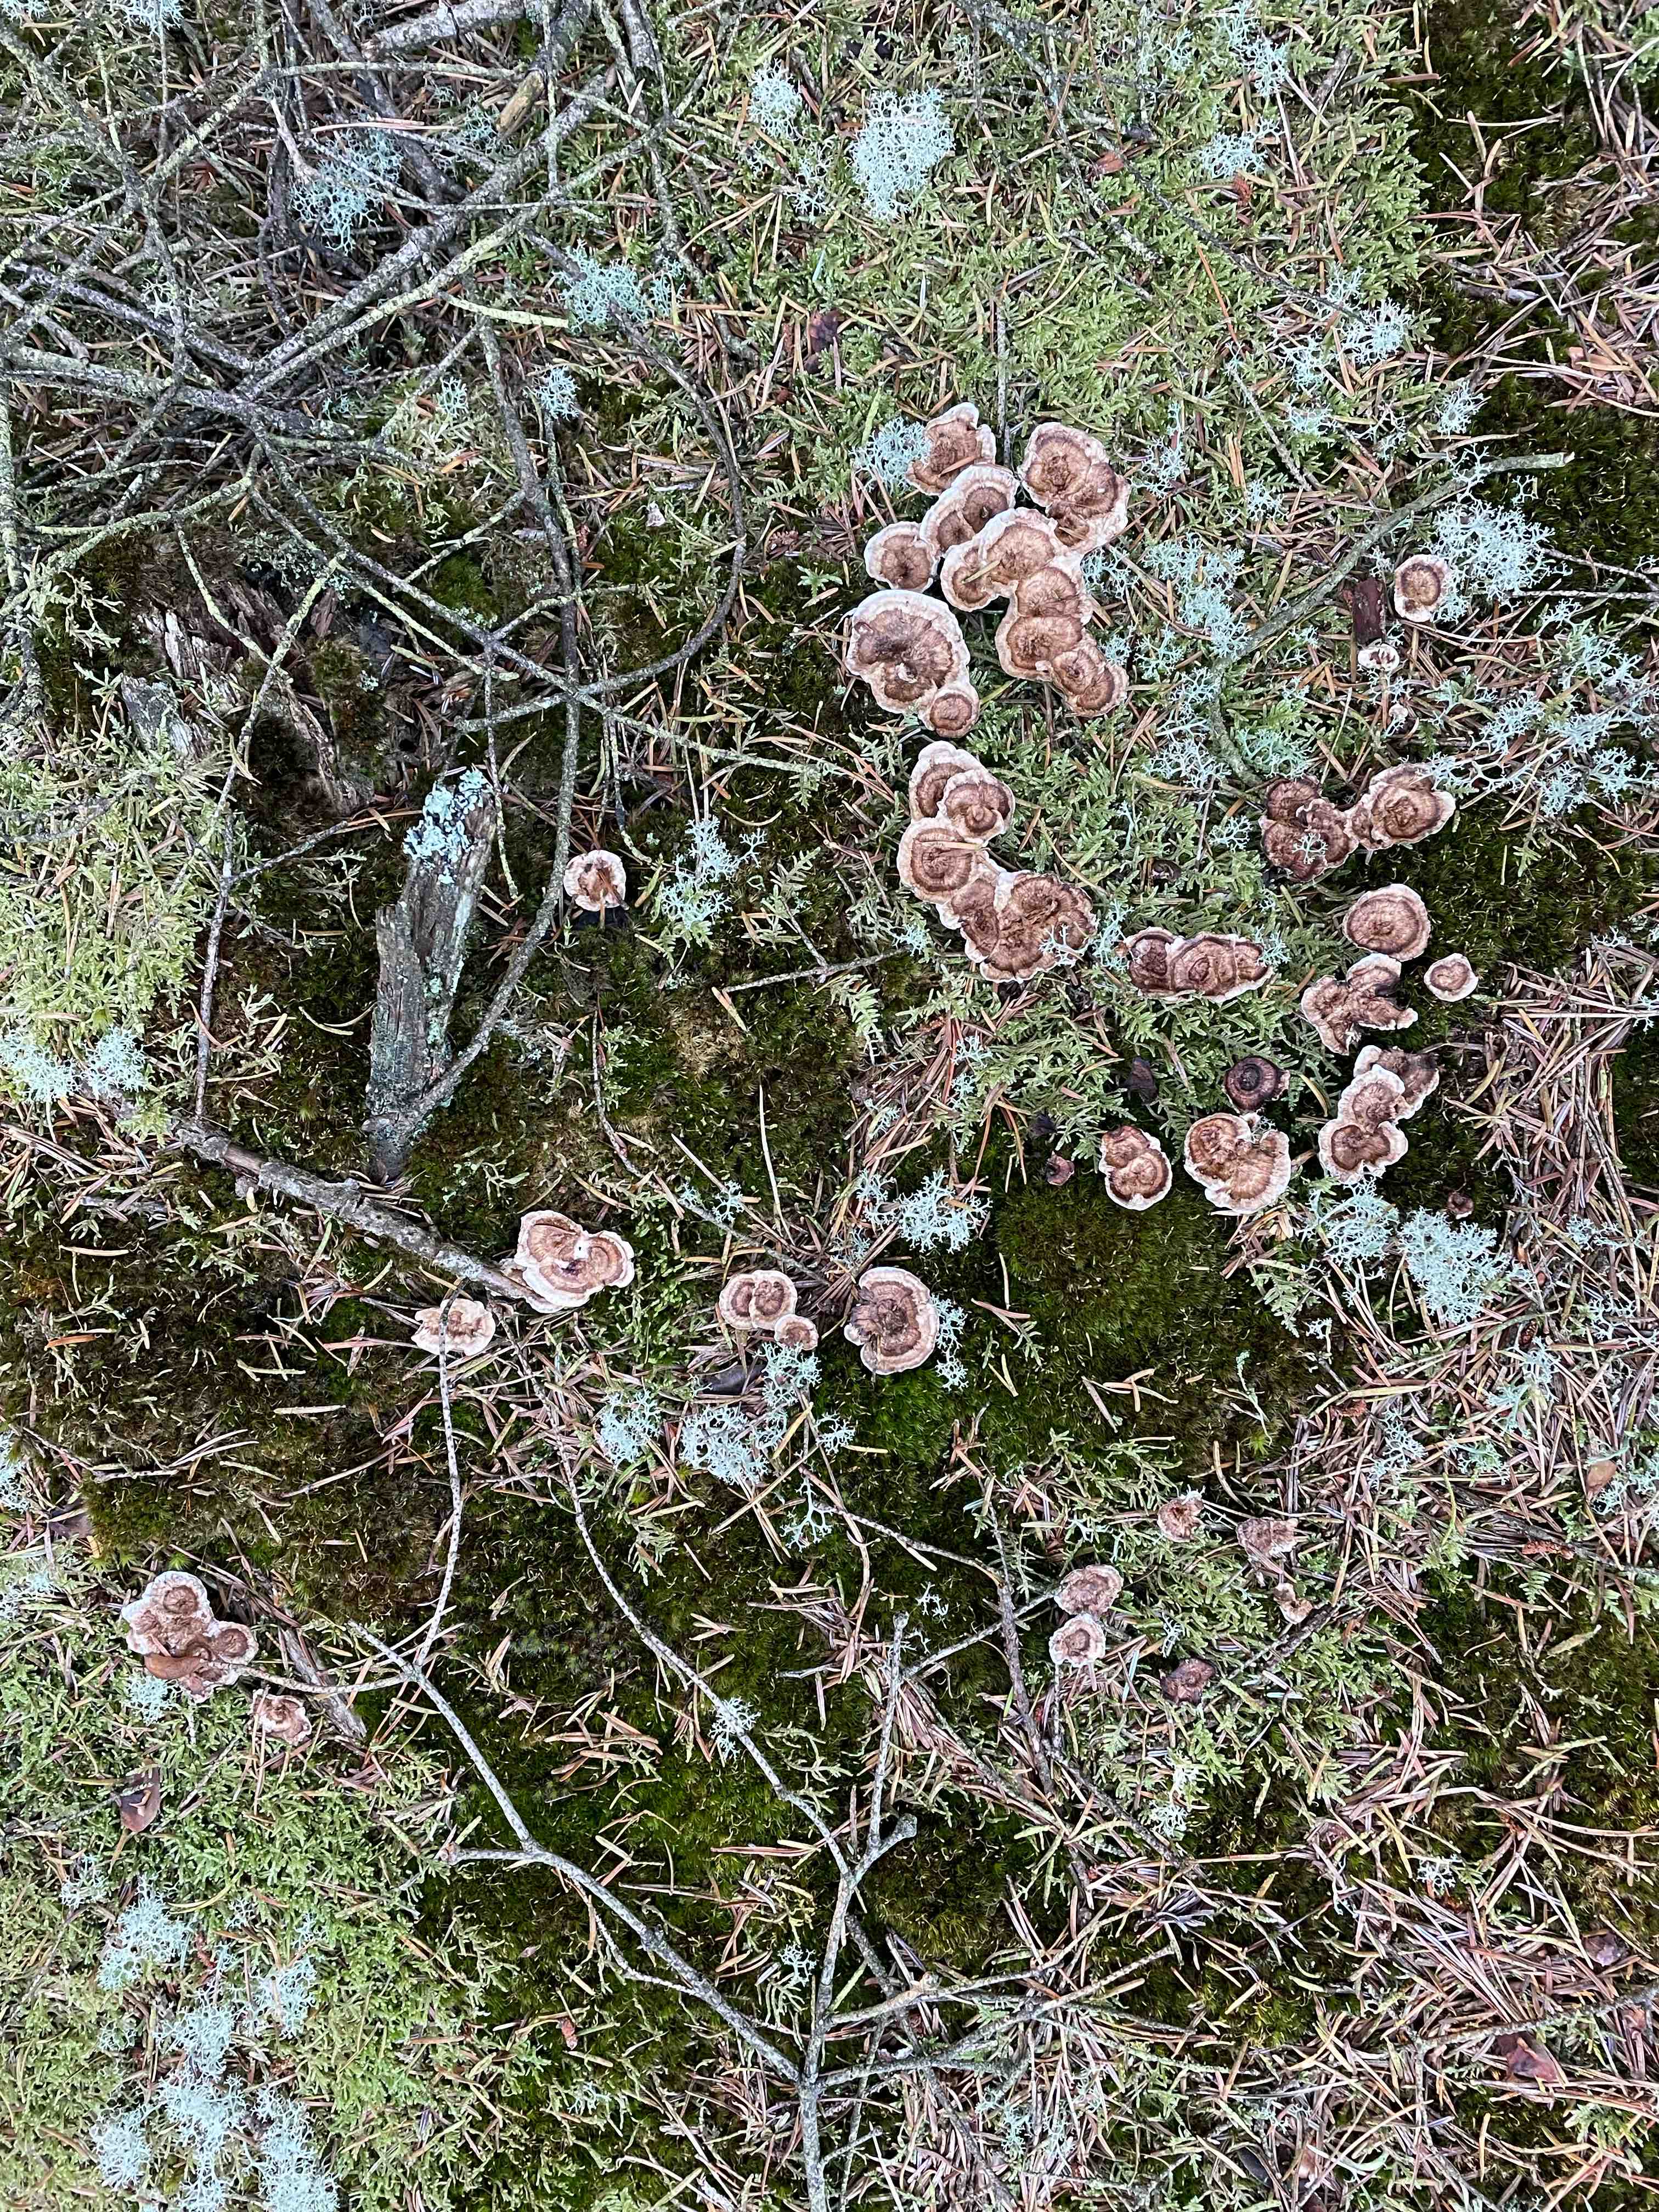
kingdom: Fungi
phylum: Basidiomycota
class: Agaricomycetes
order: Thelephorales
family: Thelephoraceae
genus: Phellodon
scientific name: Phellodon tomentosus
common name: tragtformet duftpigsvamp
